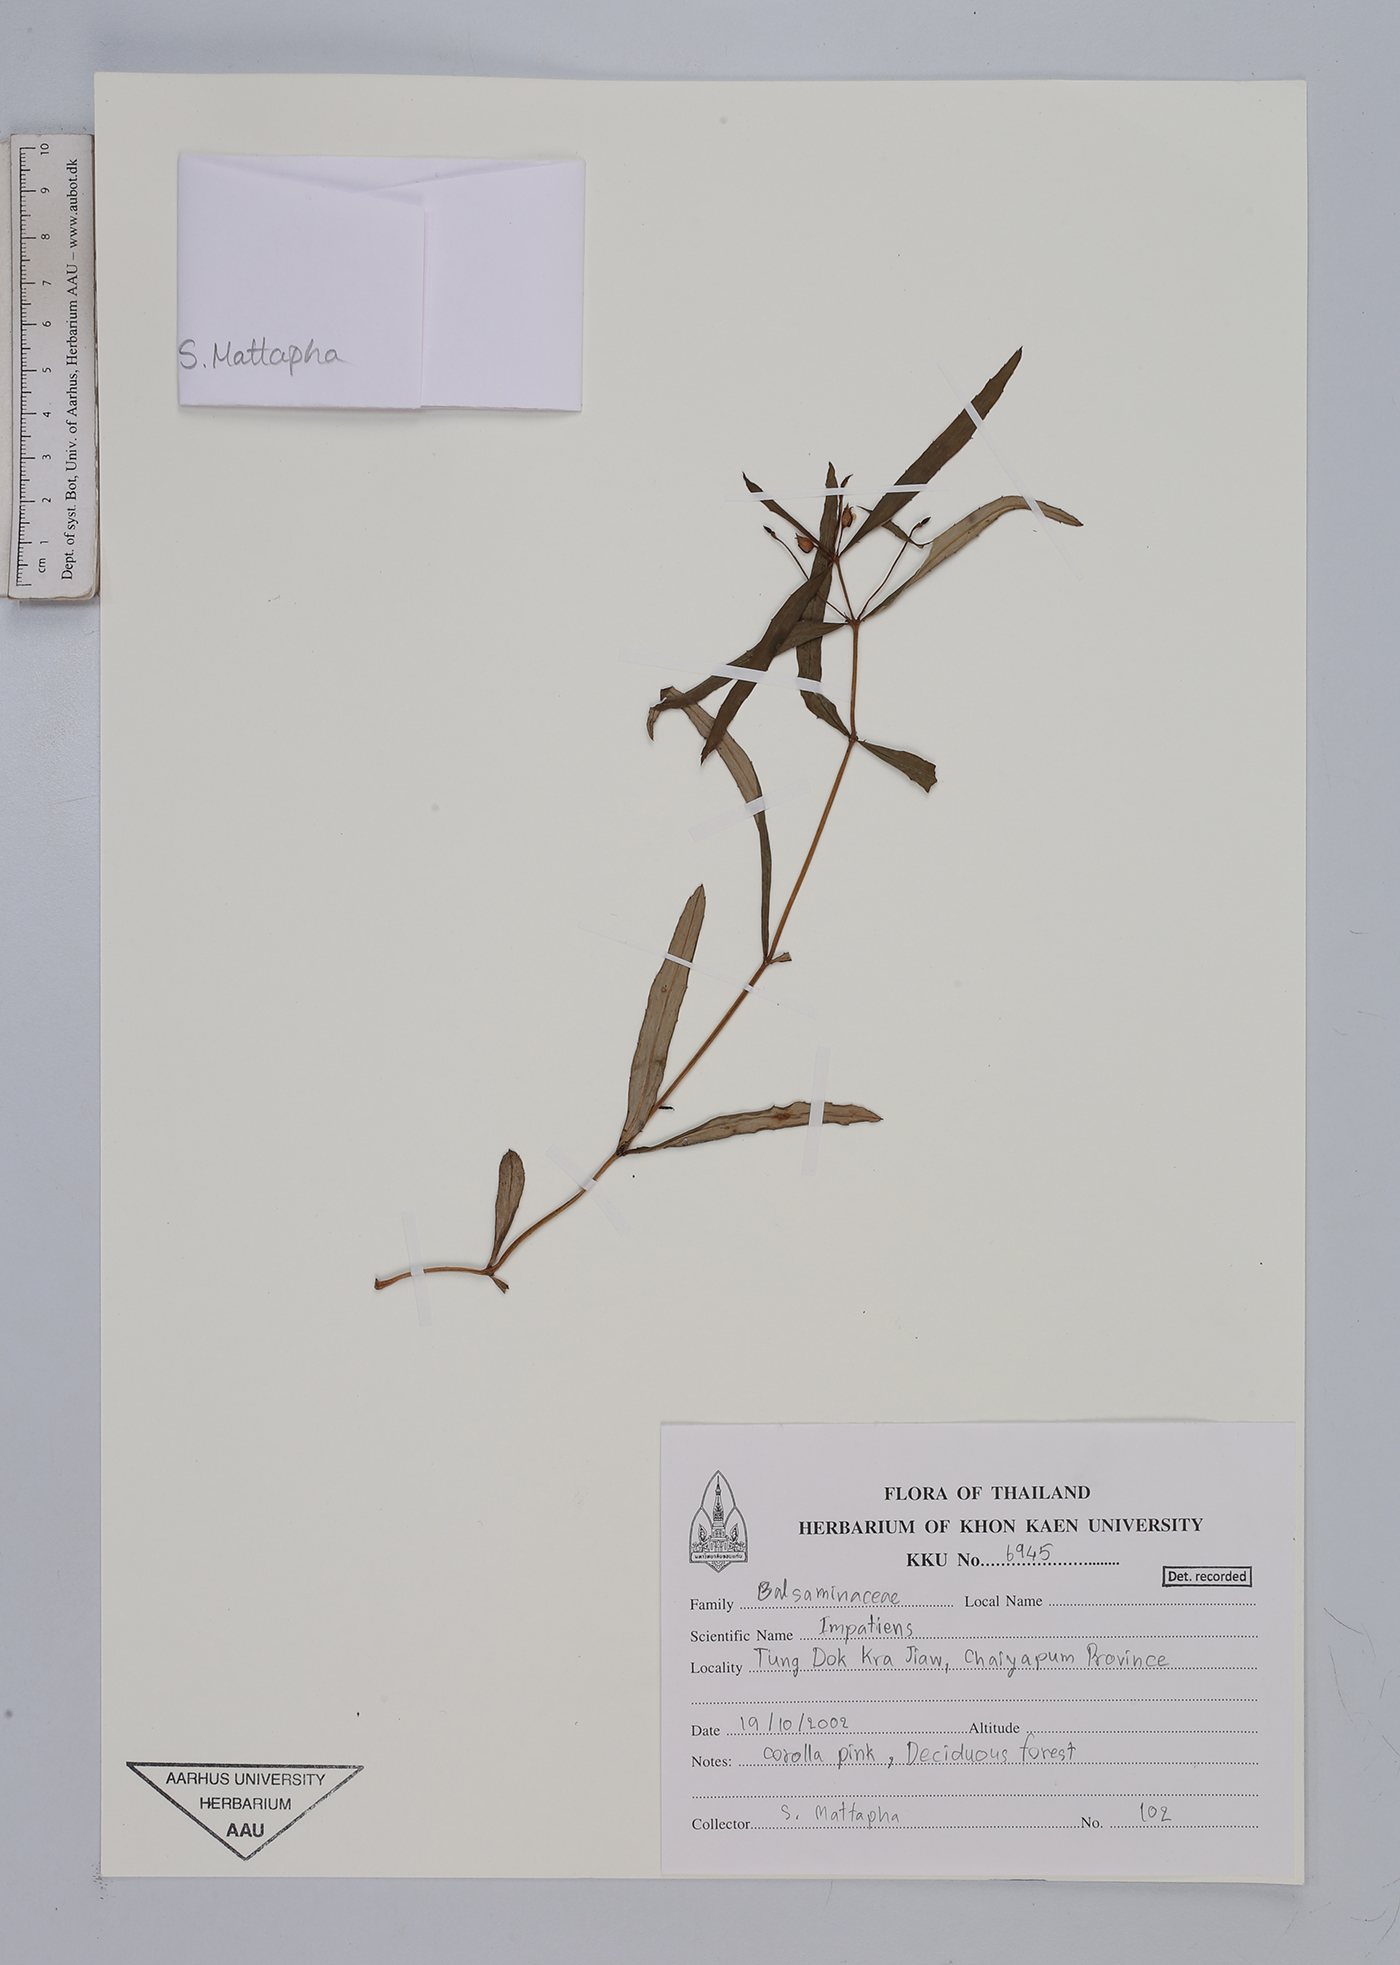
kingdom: Plantae
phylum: Tracheophyta
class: Magnoliopsida
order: Ericales
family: Balsaminaceae
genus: Impatiens
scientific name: Impatiens
